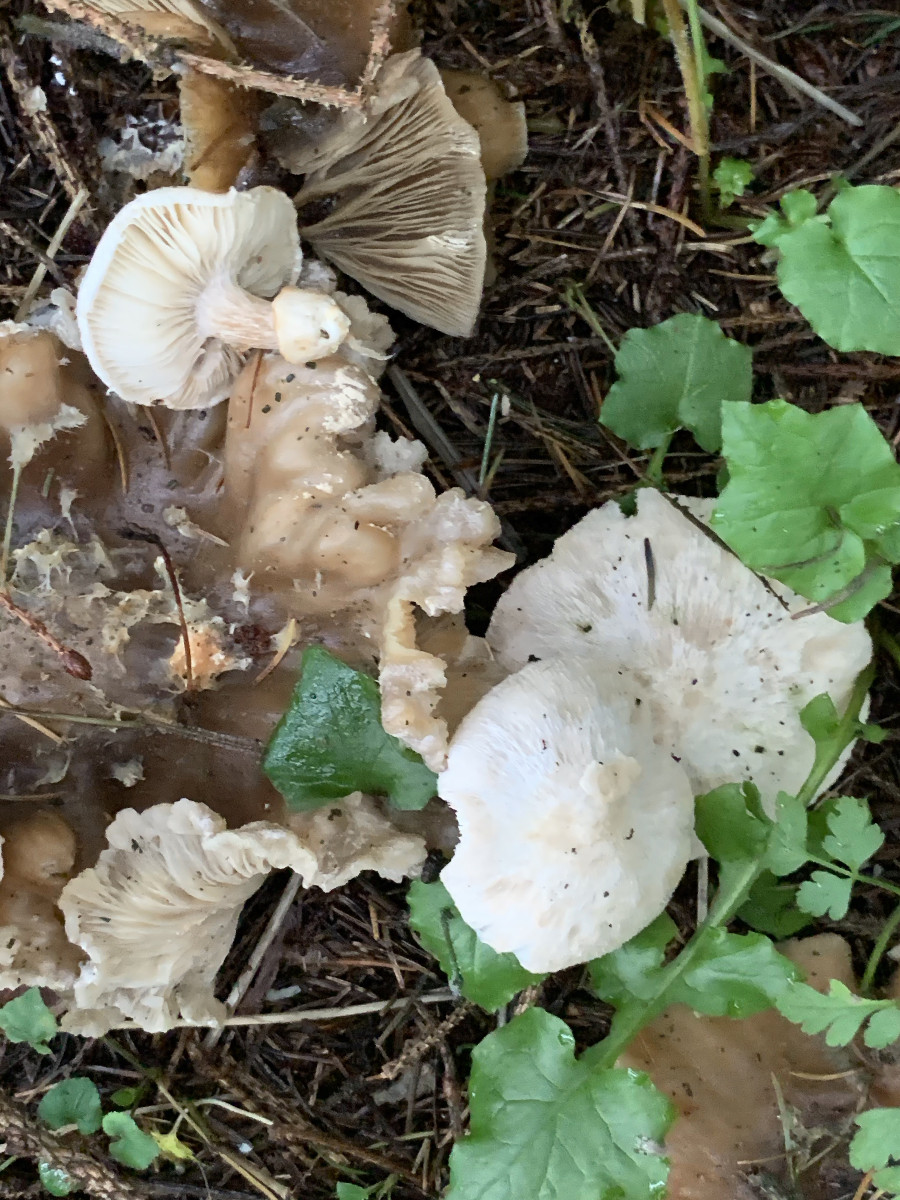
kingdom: Fungi
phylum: Basidiomycota
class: Agaricomycetes
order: Agaricales
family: Pluteaceae
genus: Volvariella
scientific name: Volvariella surrecta
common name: snyltende posesvamp
